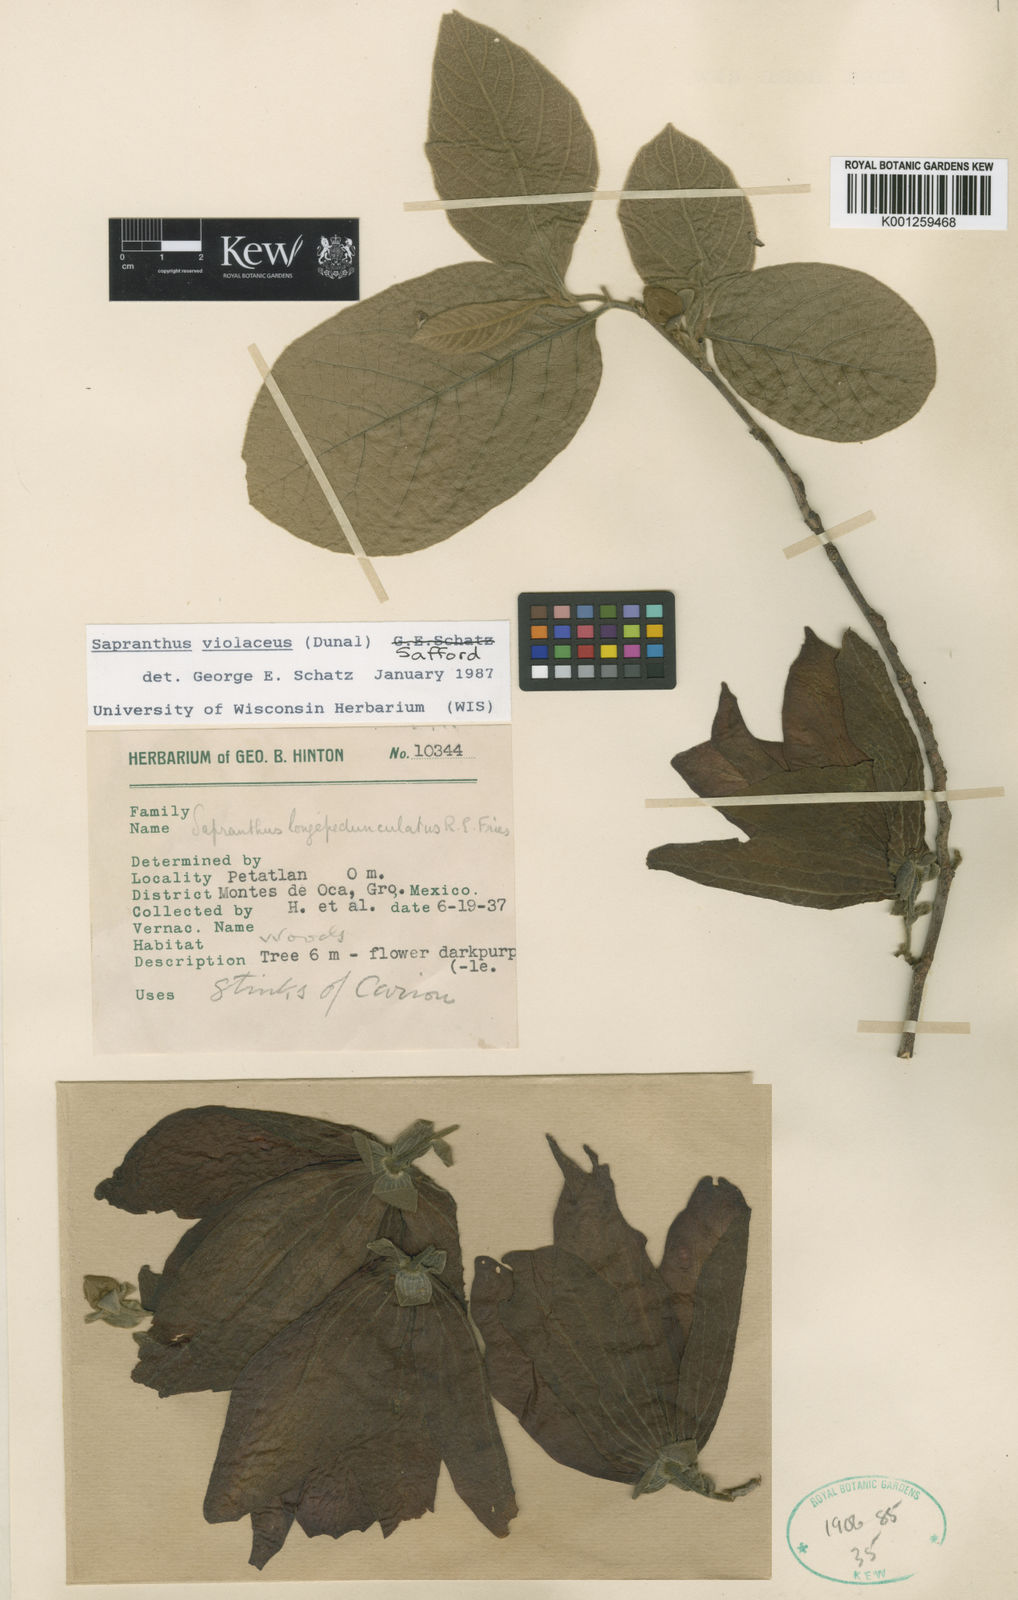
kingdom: Plantae
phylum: Tracheophyta
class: Magnoliopsida
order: Magnoliales
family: Annonaceae
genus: Sapranthus
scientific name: Sapranthus
